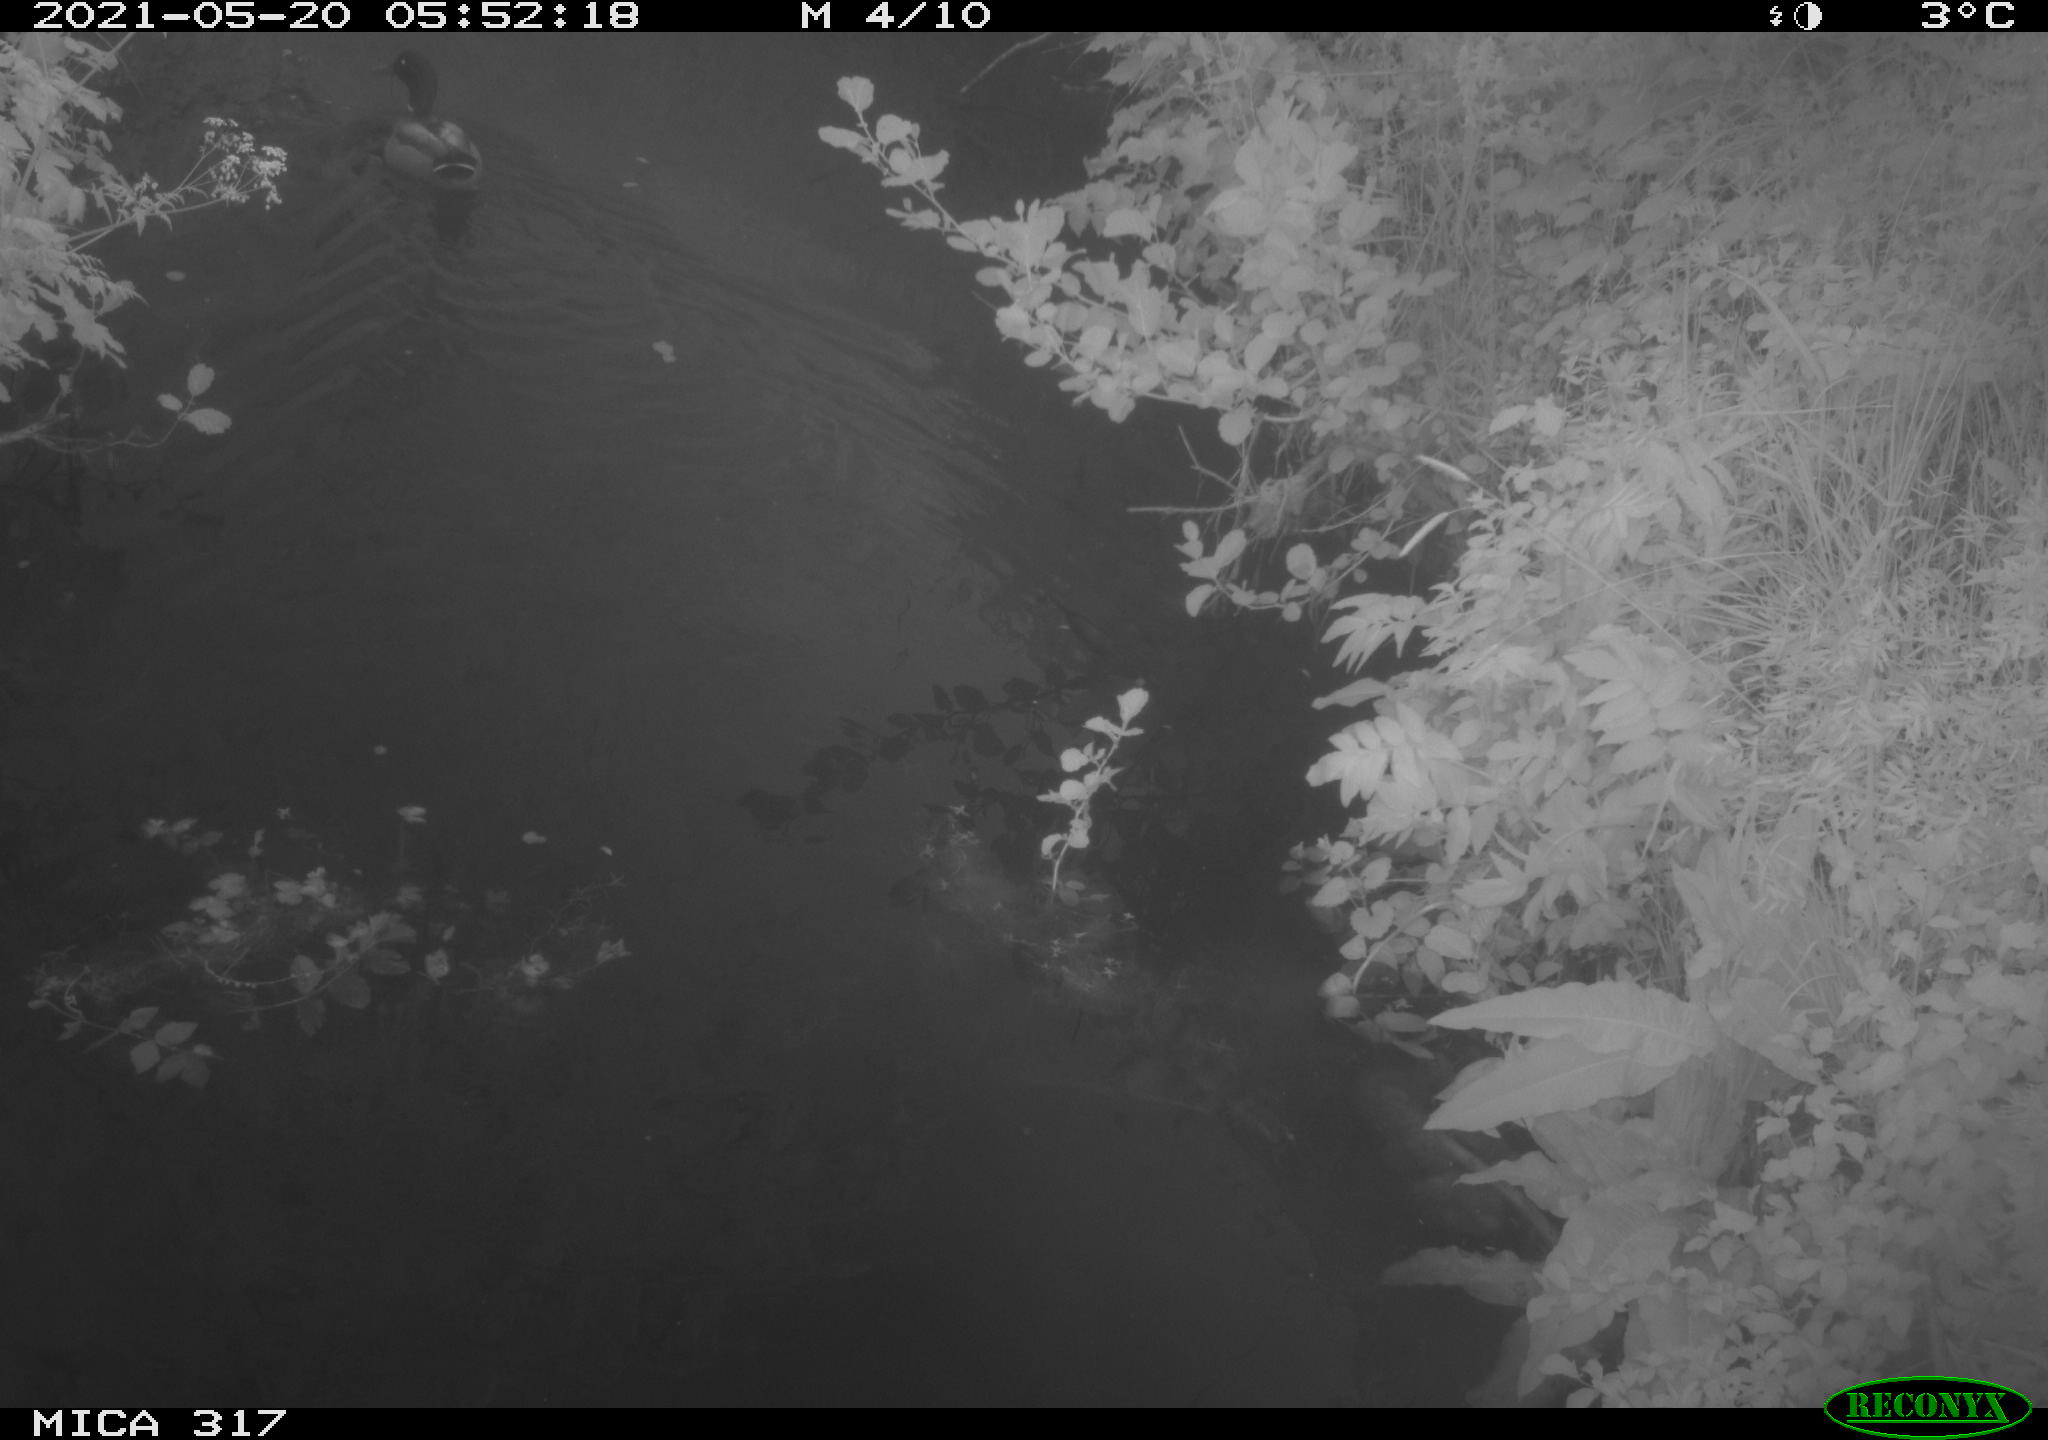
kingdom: Animalia
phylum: Chordata
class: Aves
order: Anseriformes
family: Anatidae
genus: Anas
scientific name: Anas
